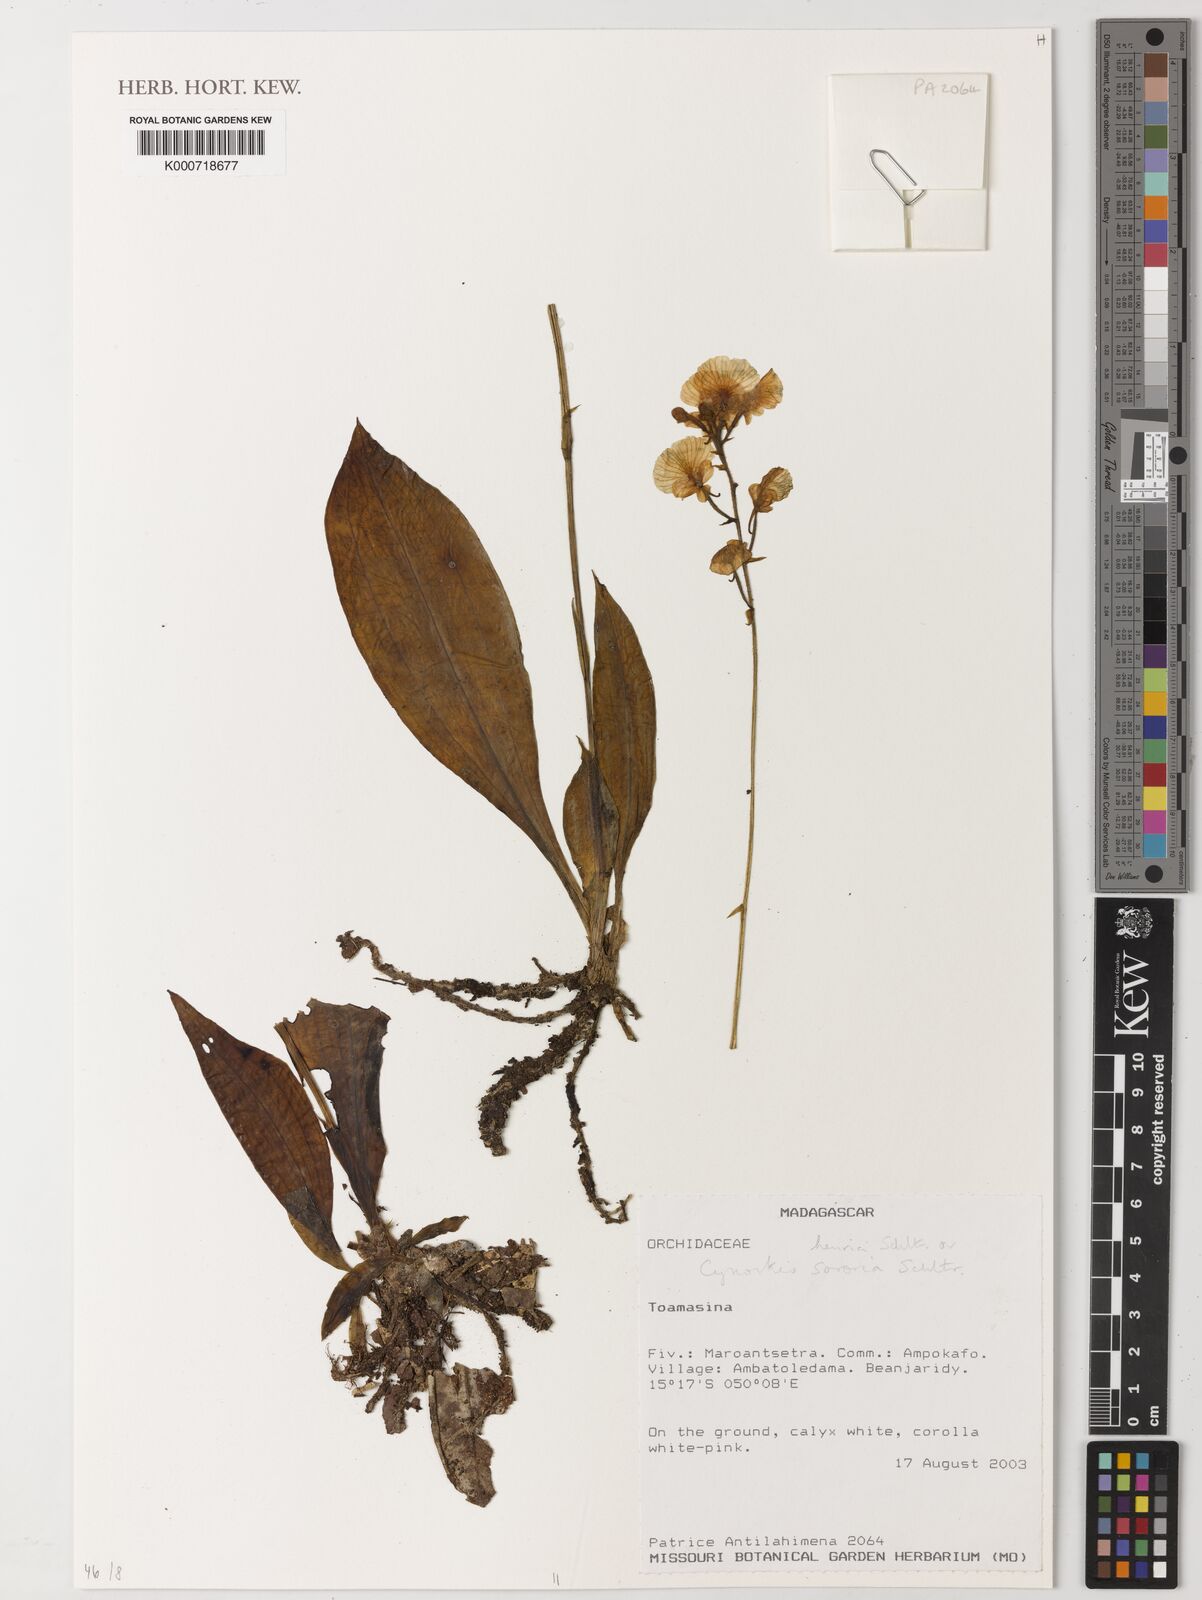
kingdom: Plantae
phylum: Tracheophyta
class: Liliopsida
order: Asparagales
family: Orchidaceae
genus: Cynorkis
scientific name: Cynorkis sororia
